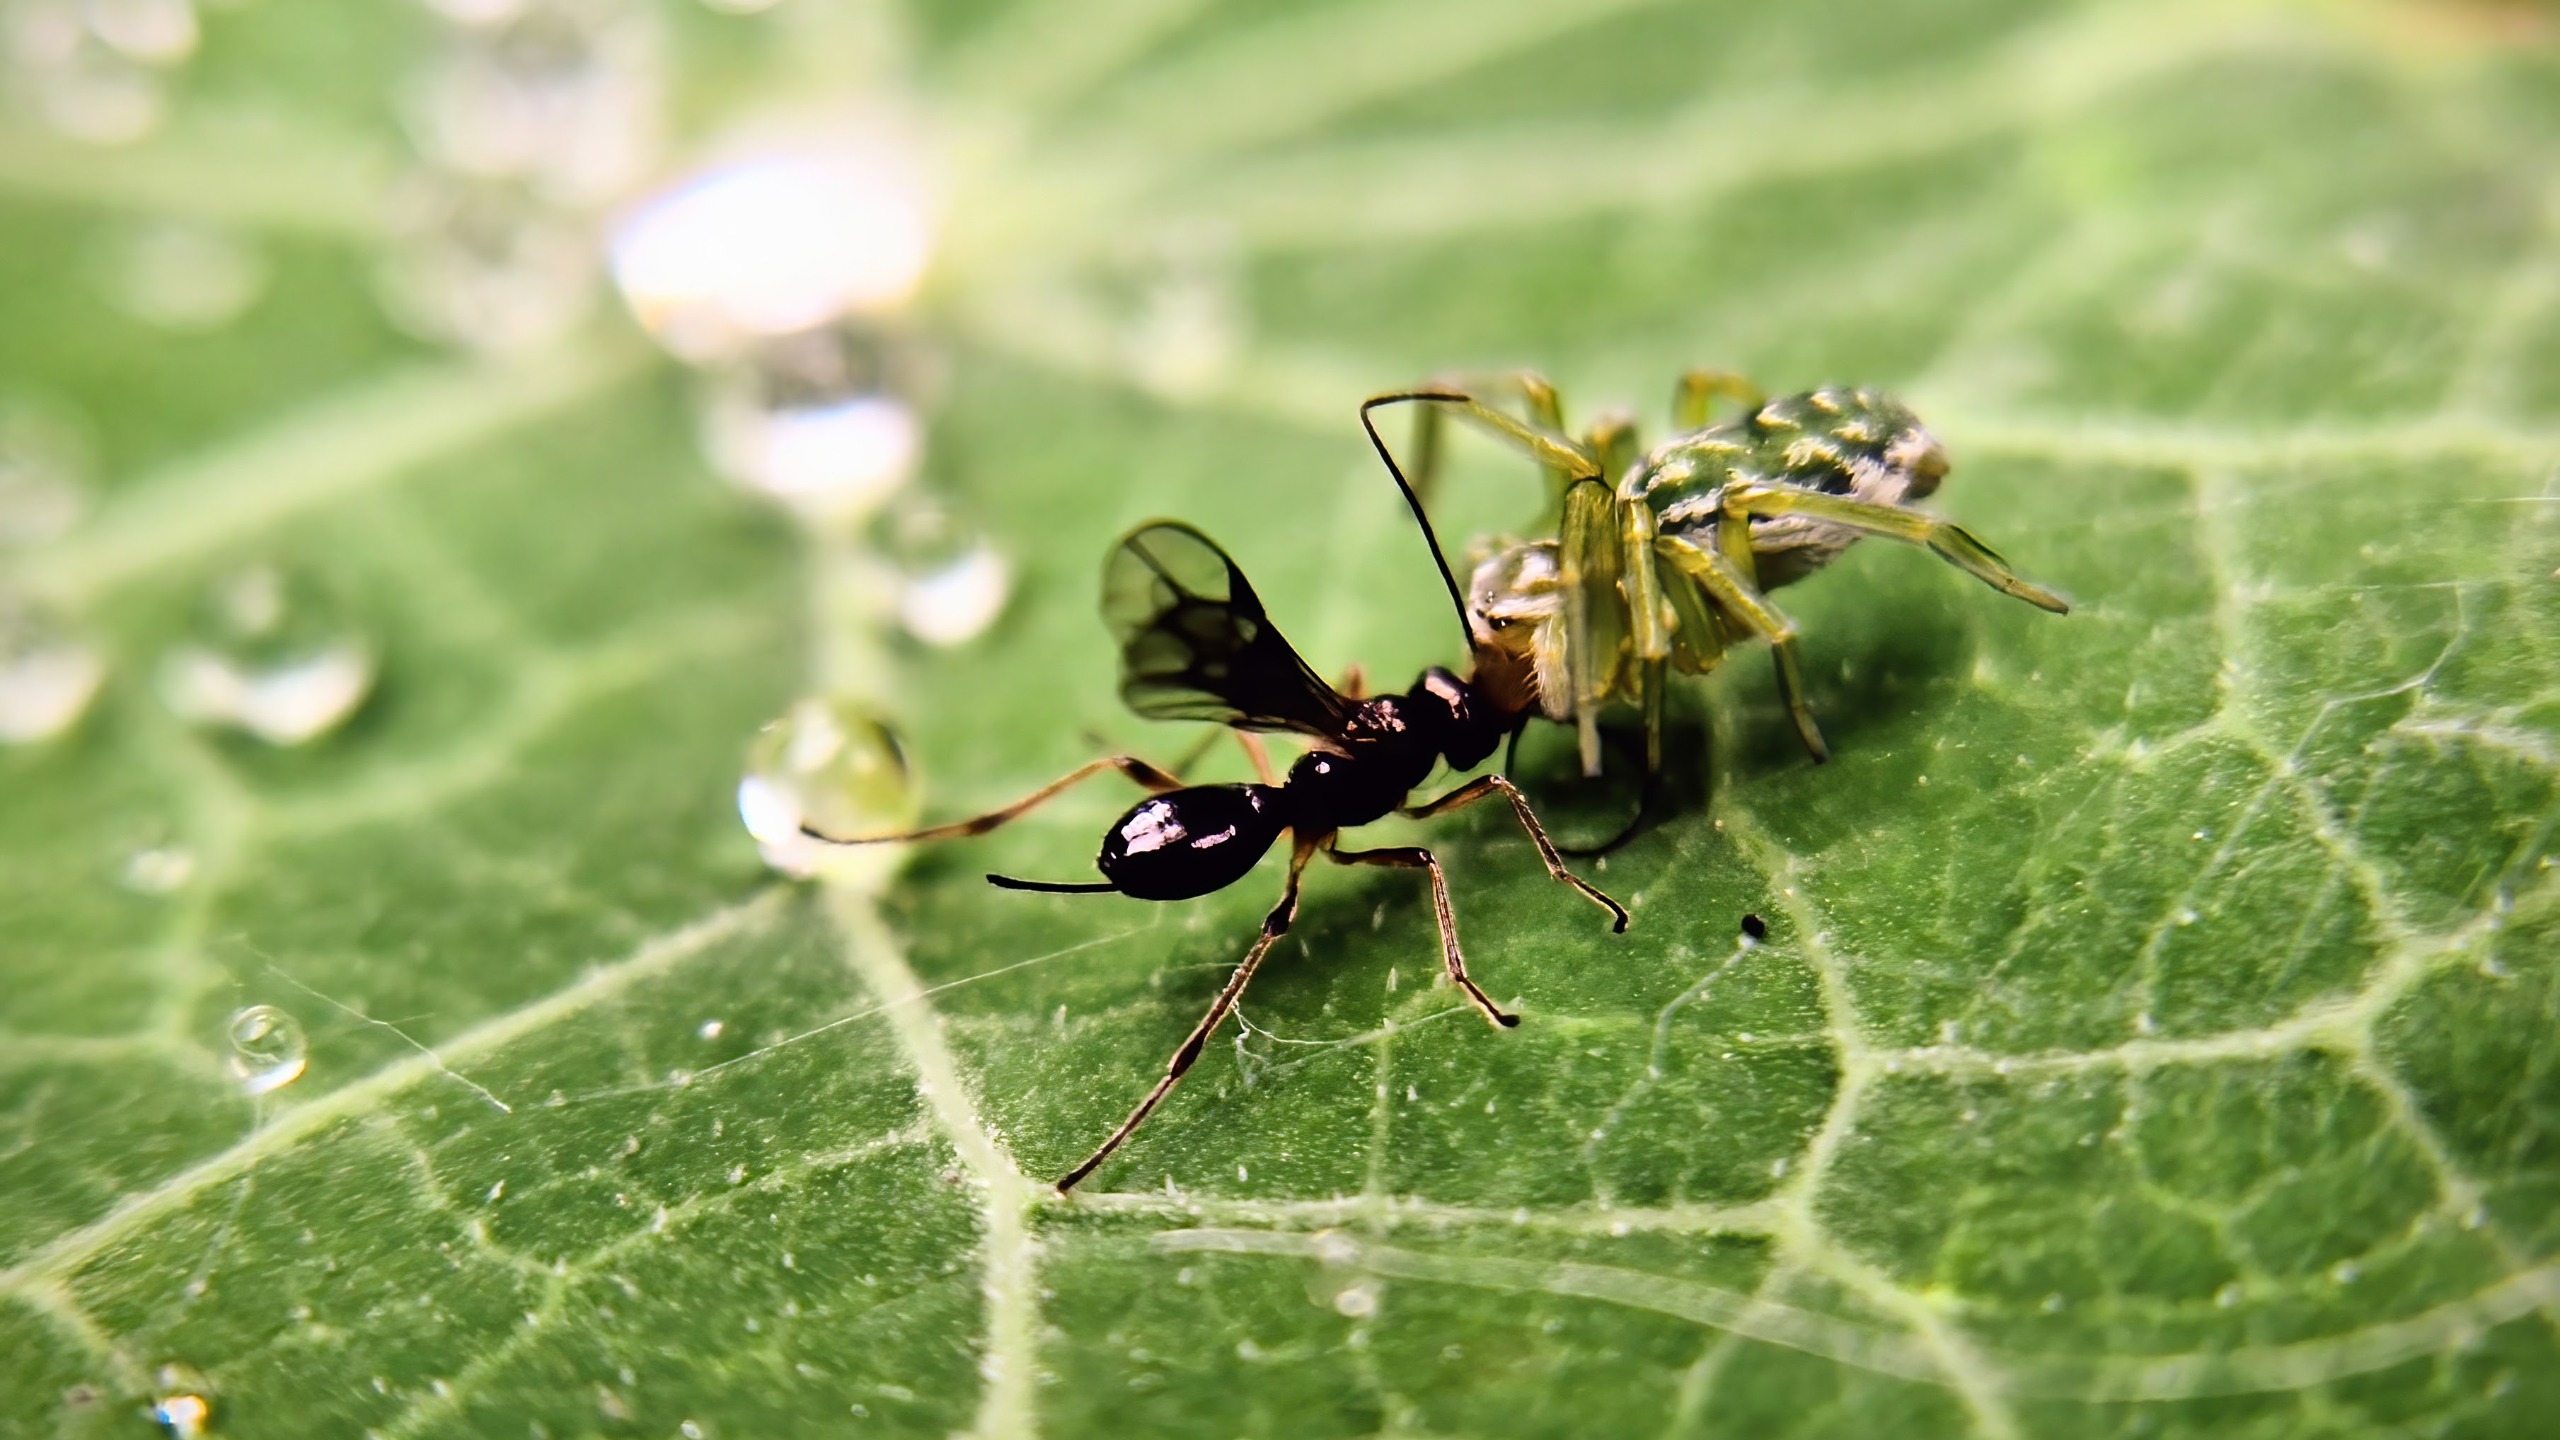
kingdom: Animalia
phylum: Arthropoda
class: Arachnida
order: Araneae
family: Dictynidae
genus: Nigma
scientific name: Nigma walckenaeri
